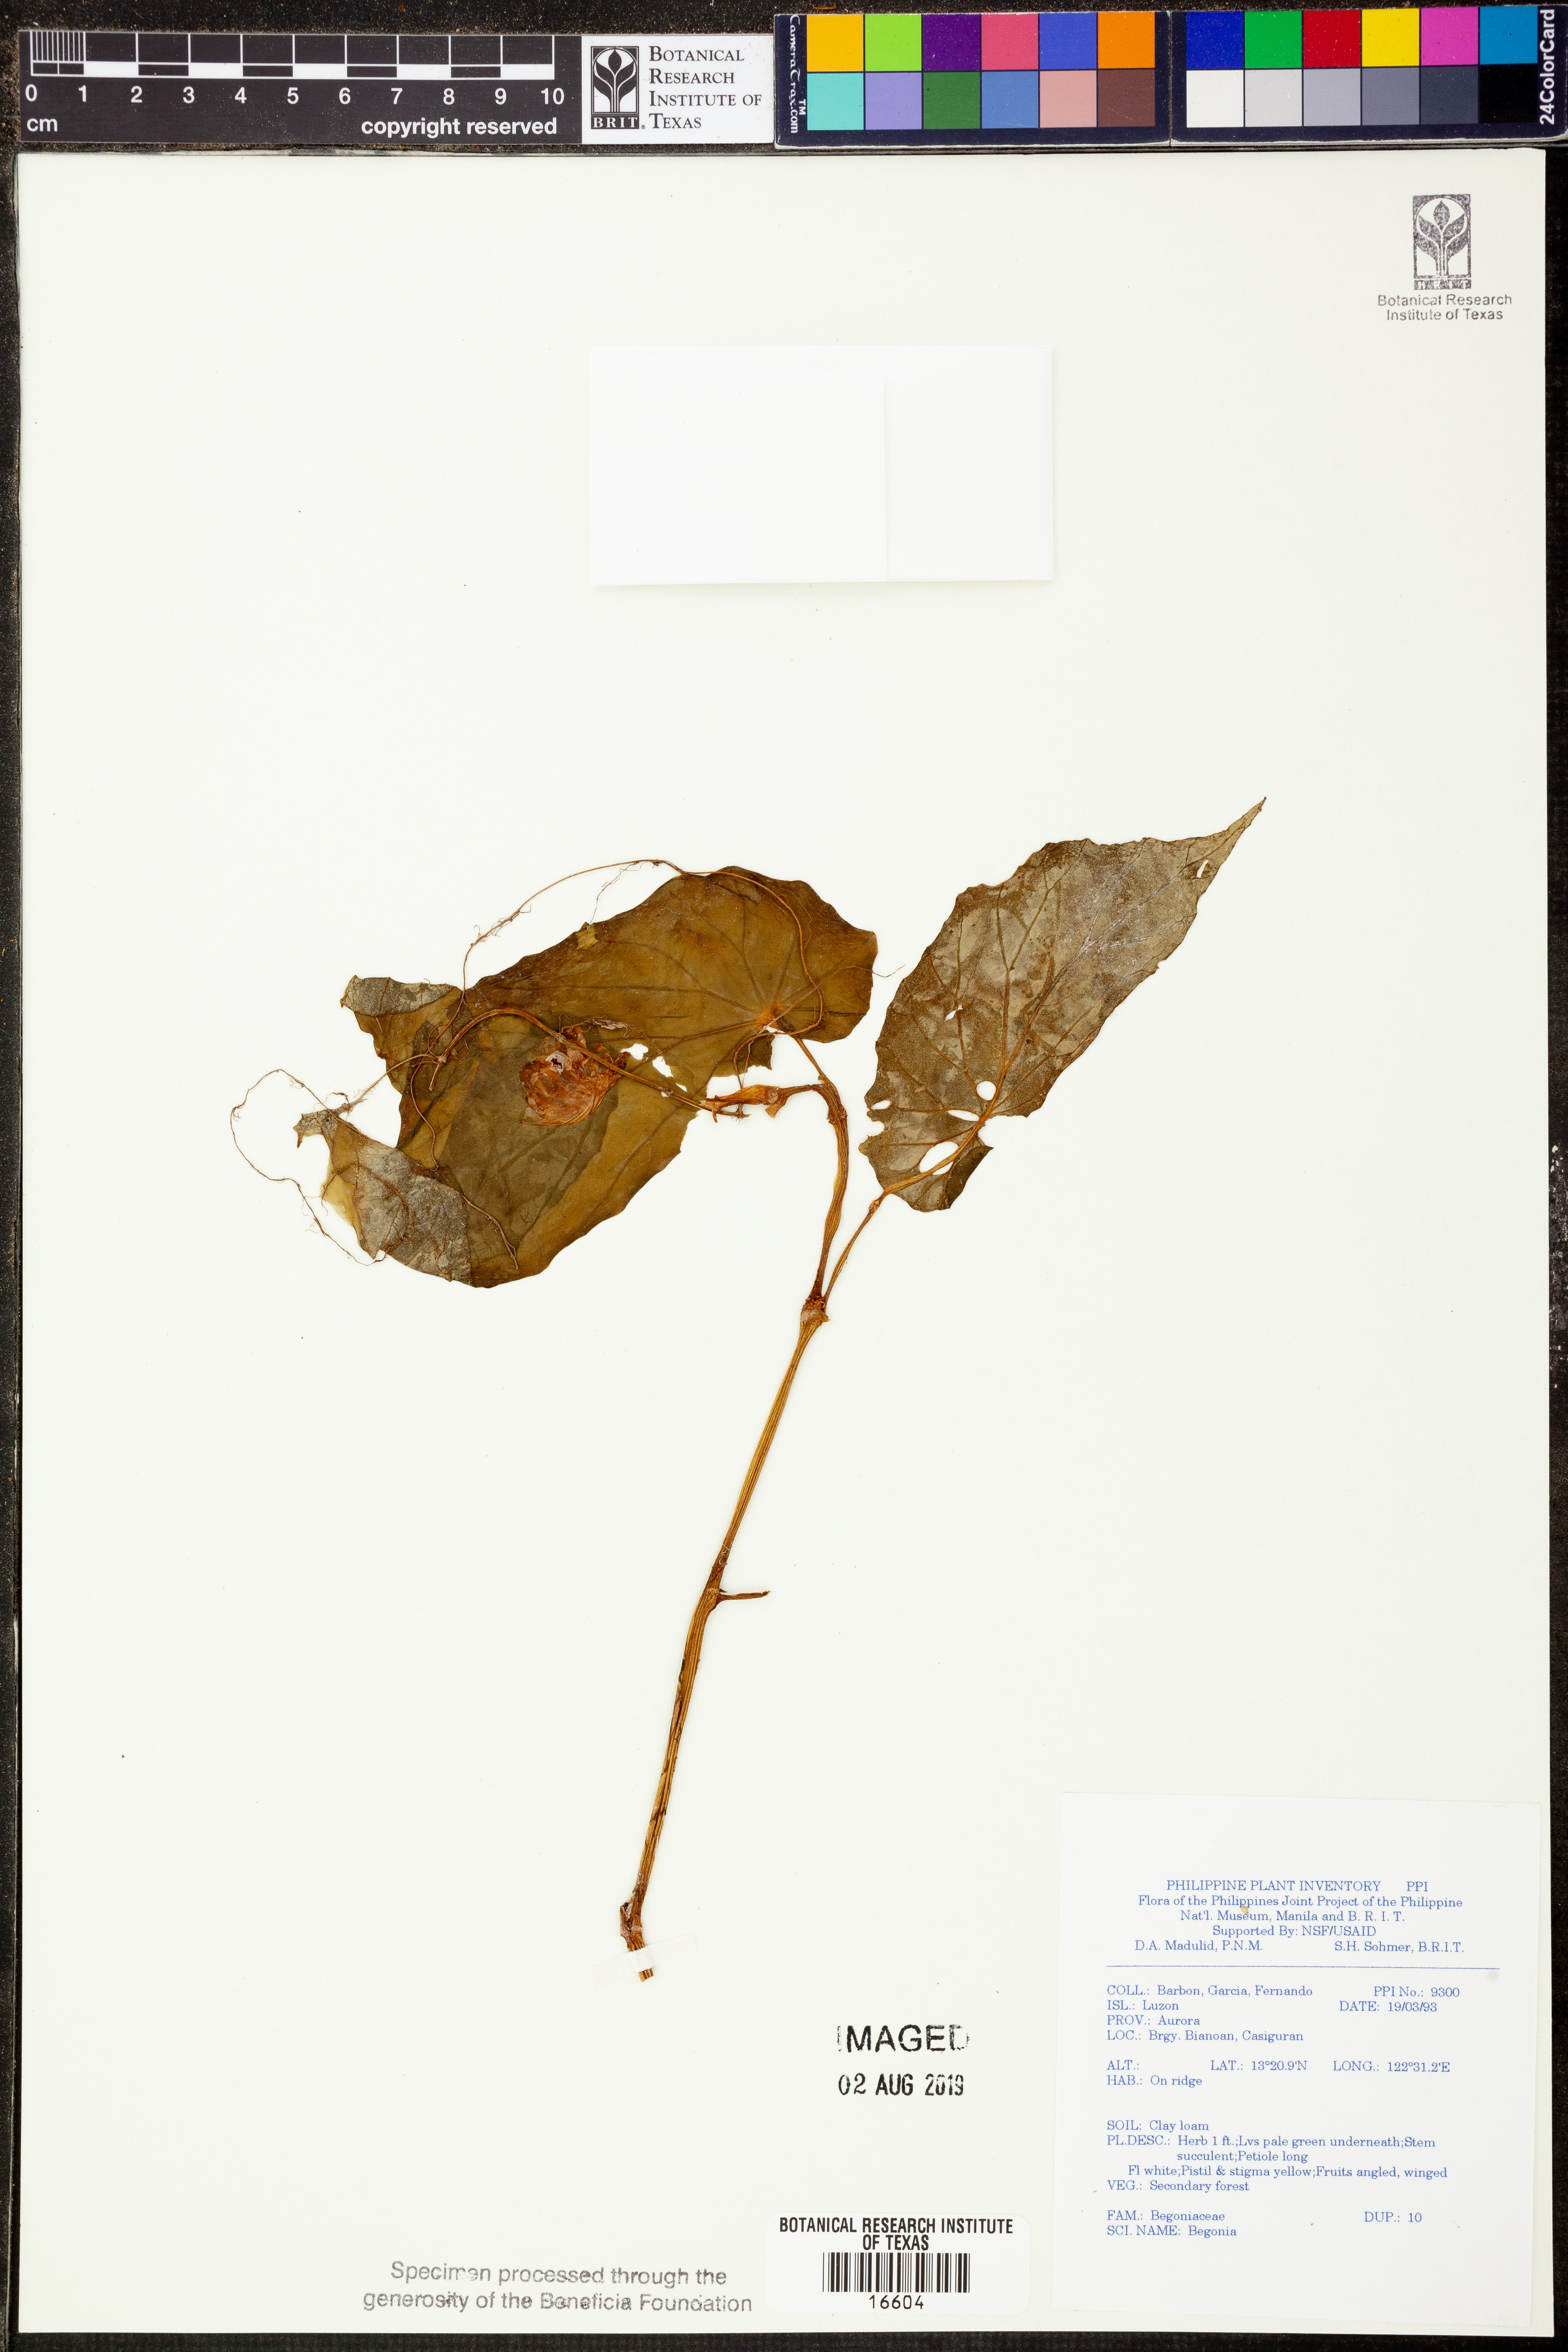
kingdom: Plantae
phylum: Tracheophyta
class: Magnoliopsida
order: Cucurbitales
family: Begoniaceae
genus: Begonia
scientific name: Begonia
